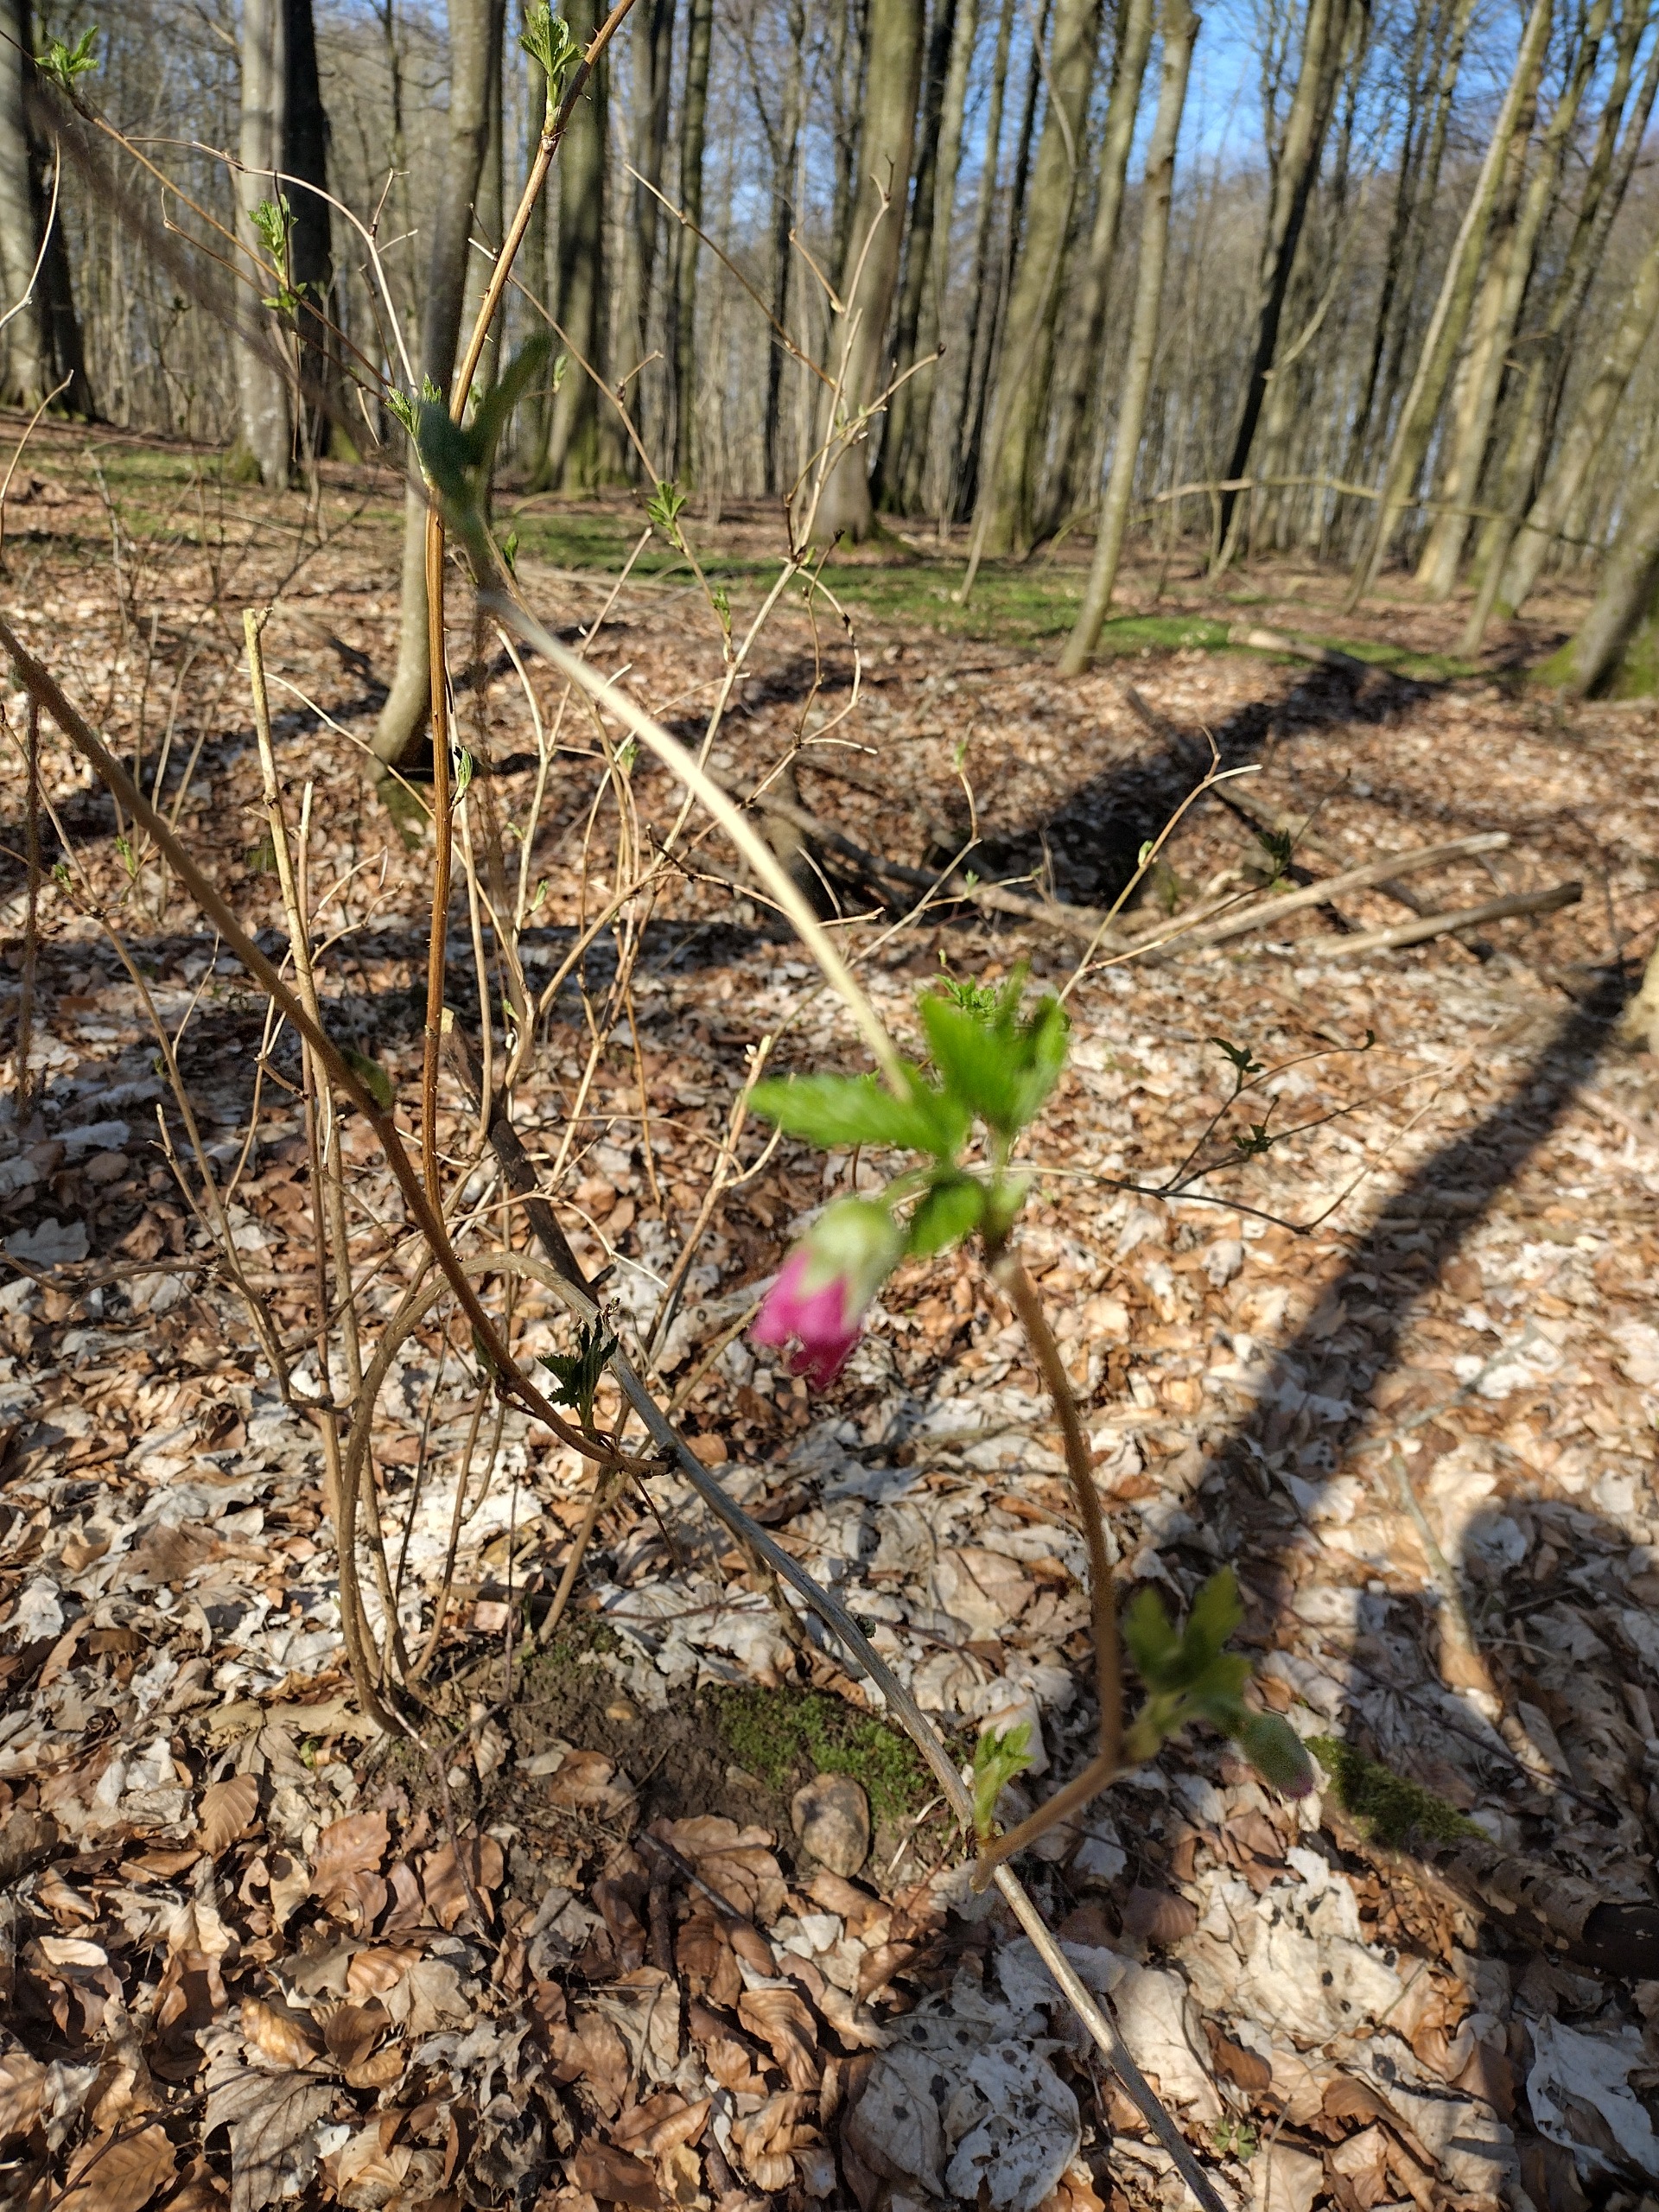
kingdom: Plantae
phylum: Tracheophyta
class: Magnoliopsida
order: Rosales
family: Rosaceae
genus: Rubus
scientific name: Rubus spectabilis
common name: Laksebær
